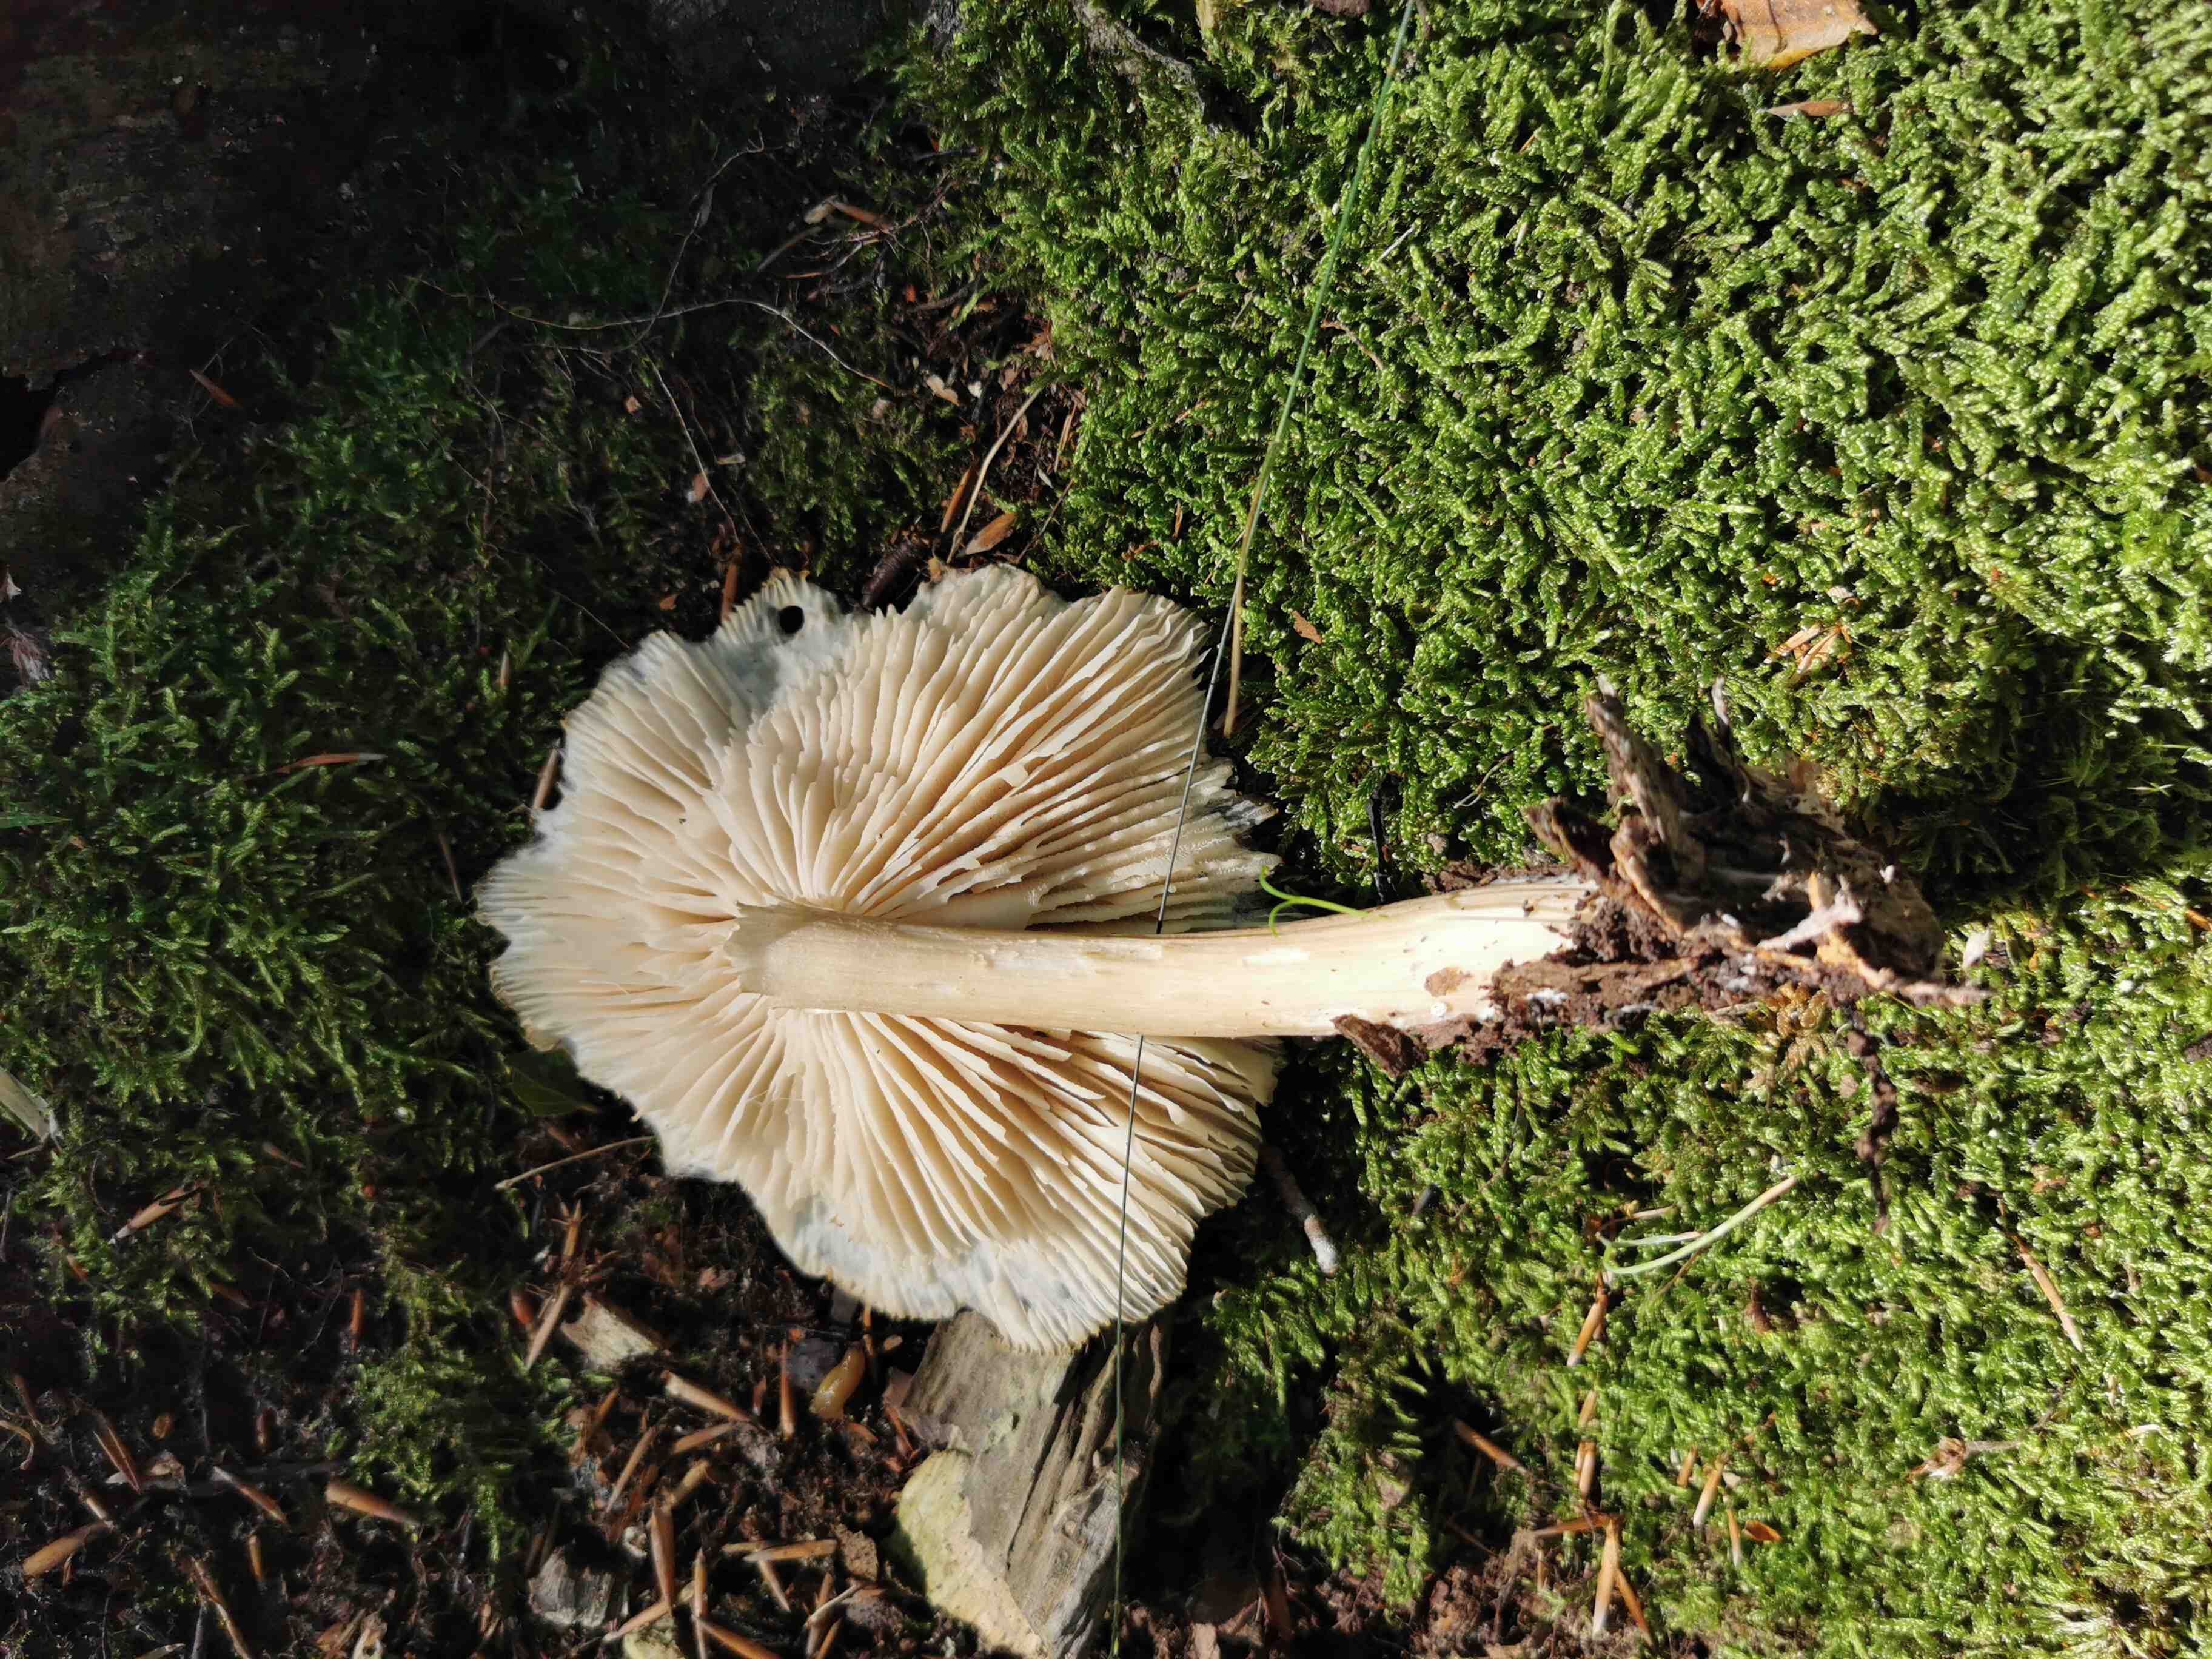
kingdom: Fungi
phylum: Basidiomycota
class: Agaricomycetes
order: Agaricales
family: Tricholomataceae
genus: Megacollybia
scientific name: Megacollybia platyphylla
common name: bredbladet væbnerhat
